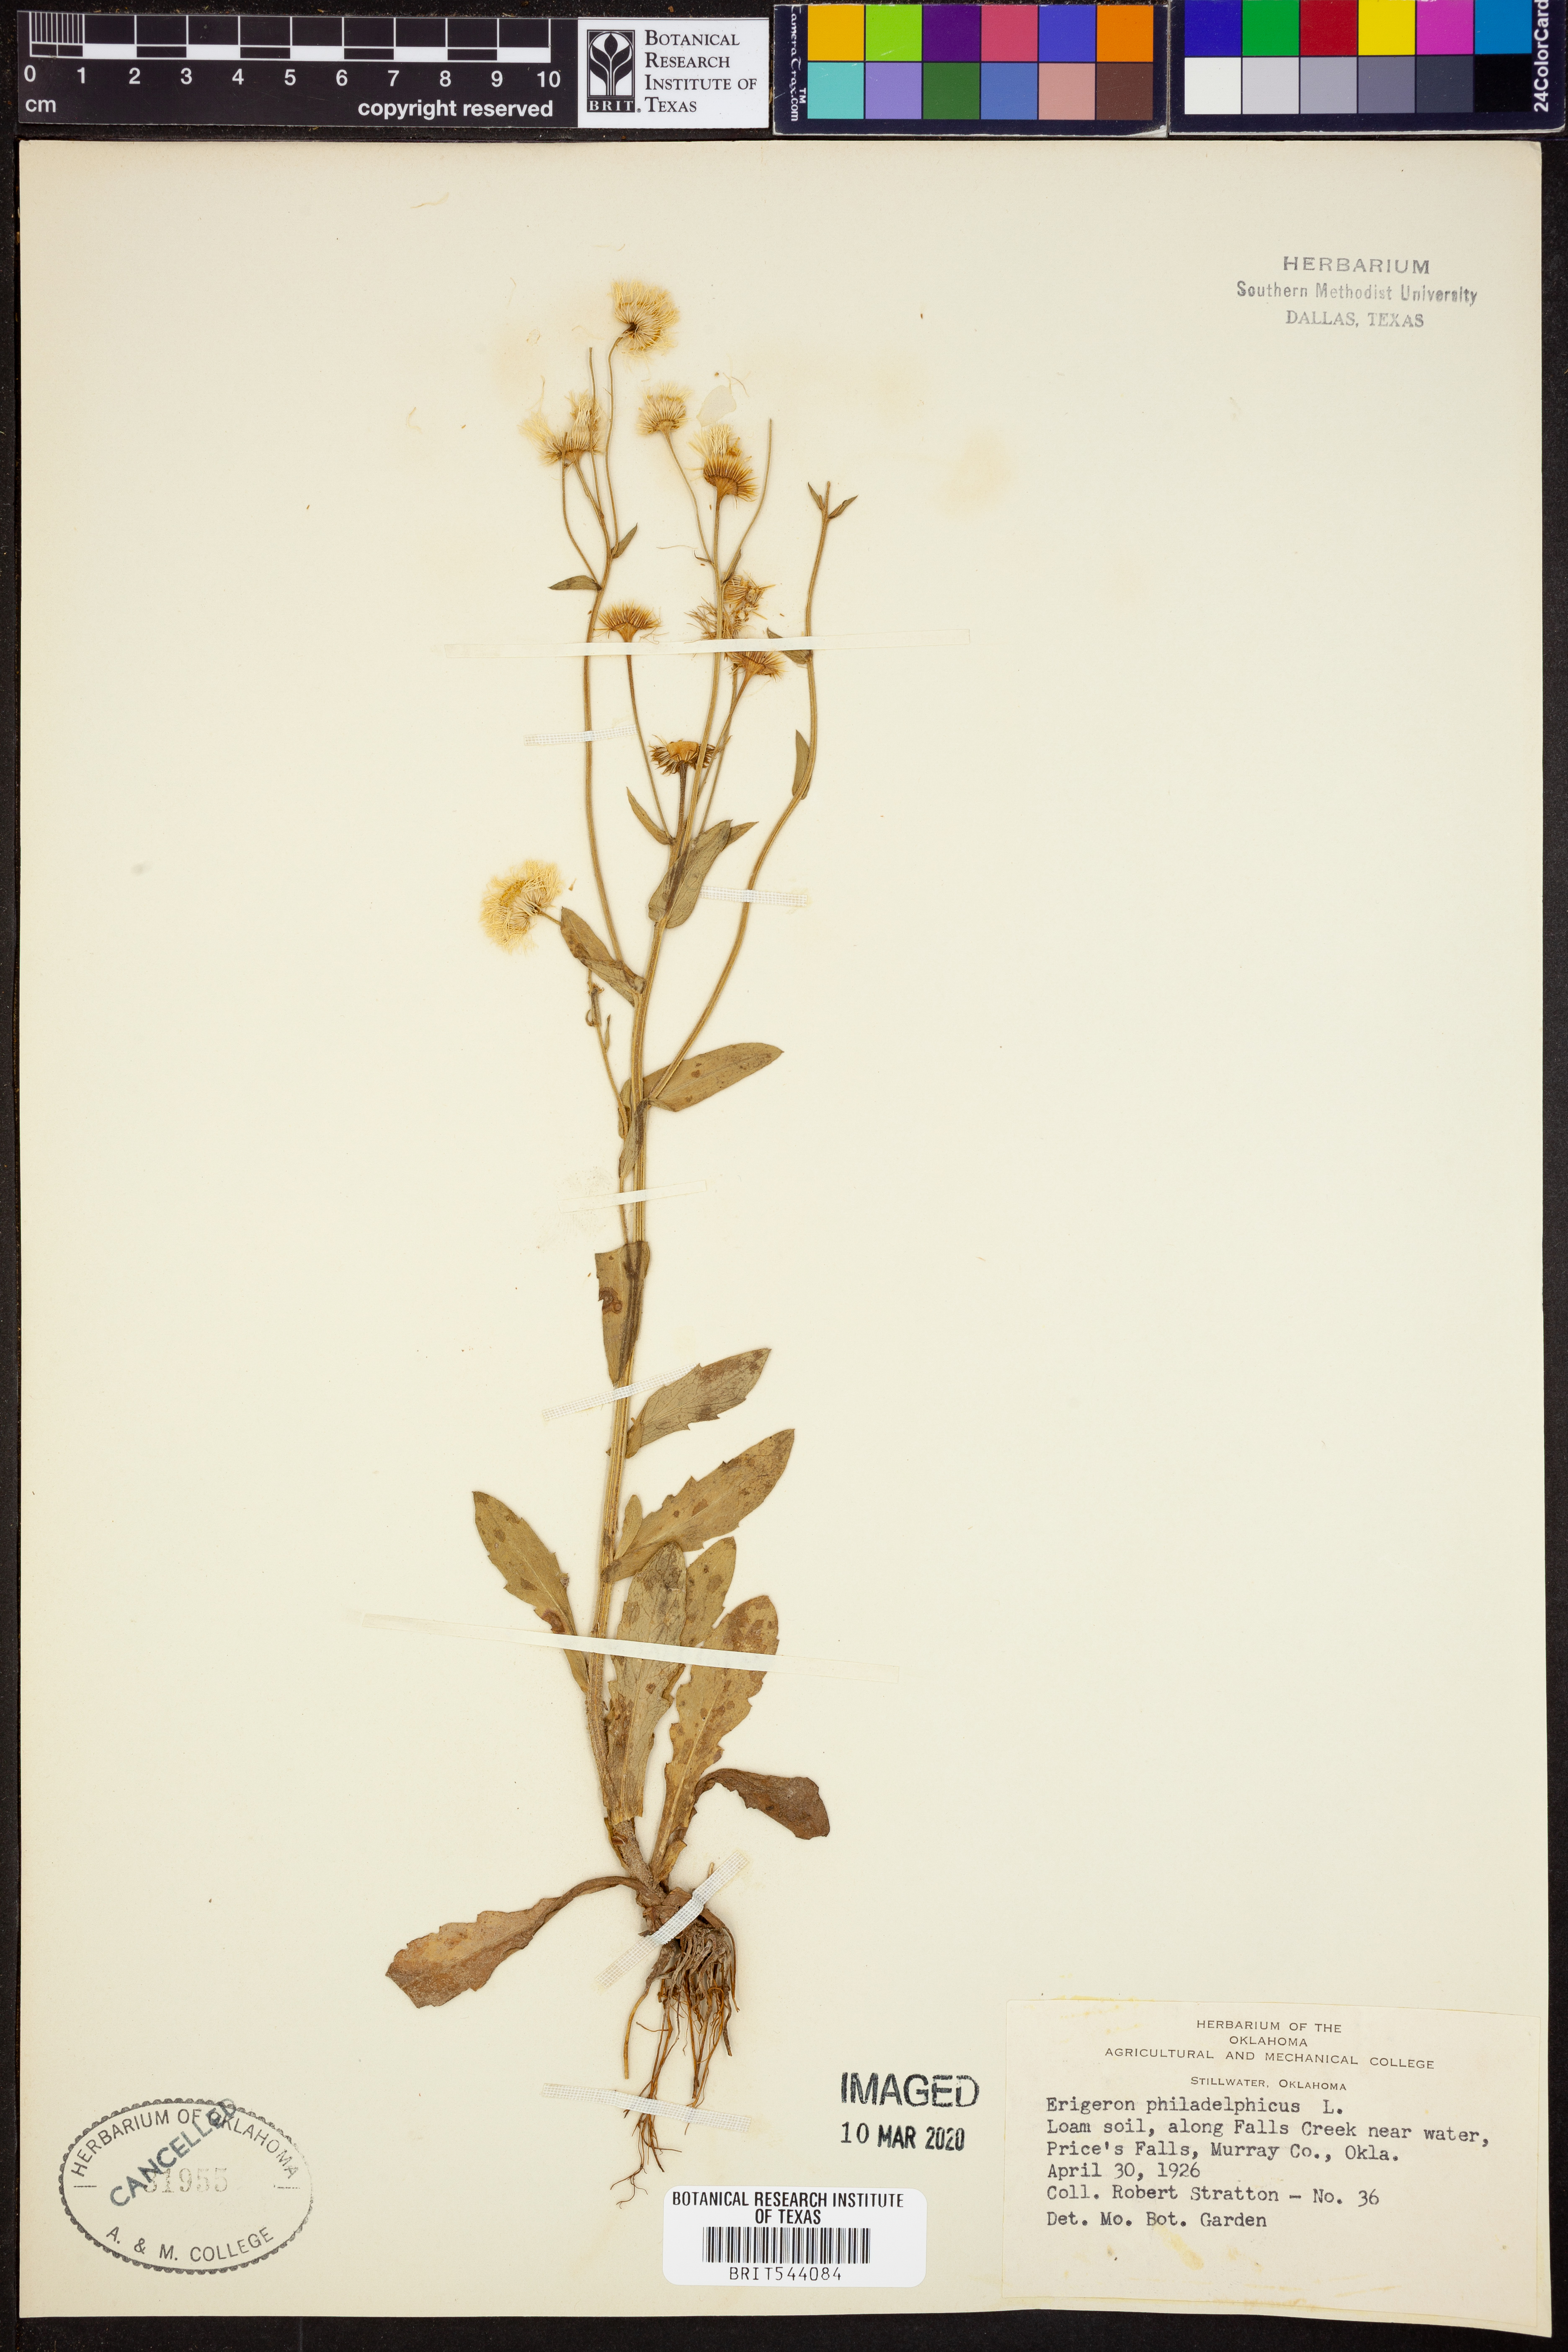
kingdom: Plantae
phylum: Tracheophyta
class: Magnoliopsida
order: Asterales
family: Asteraceae
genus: Erigeron
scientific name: Erigeron philadelphicus
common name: Robin's-plantain
